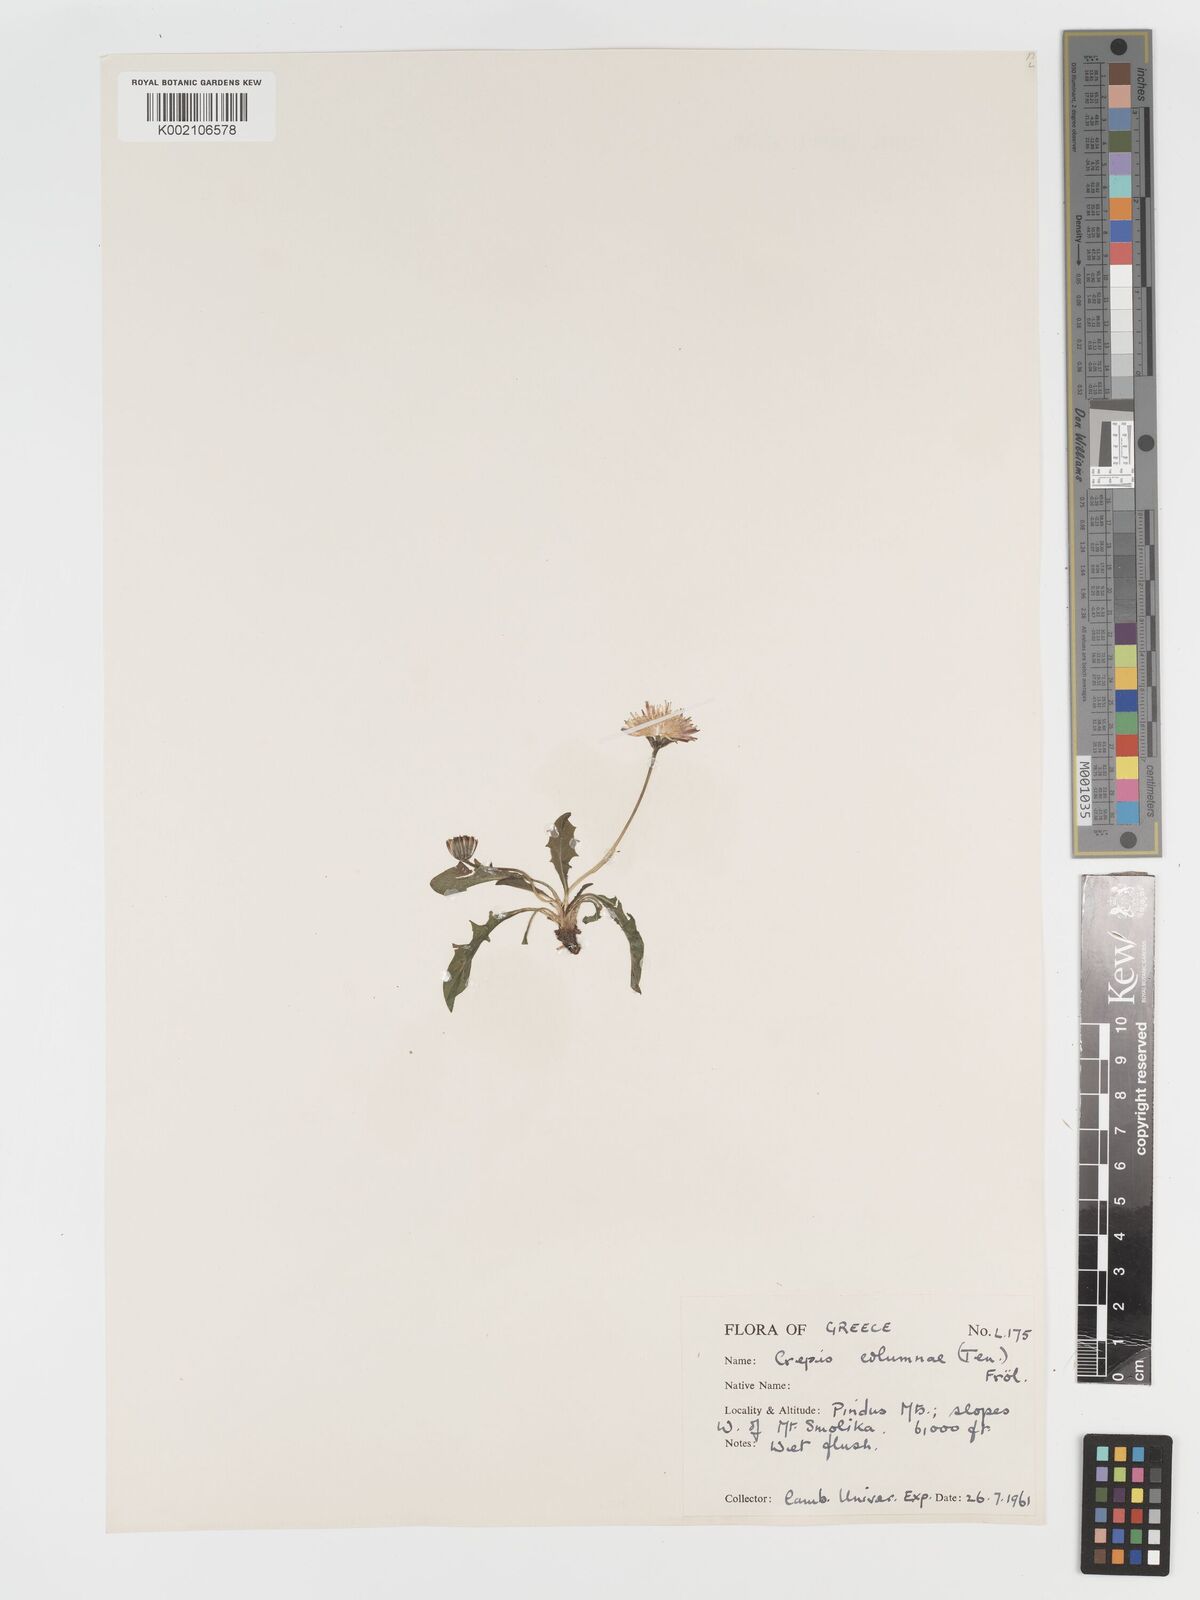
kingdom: Plantae
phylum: Tracheophyta
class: Magnoliopsida
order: Asterales
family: Asteraceae
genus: Crepis
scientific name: Crepis aurea
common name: Golden hawk's-beard
